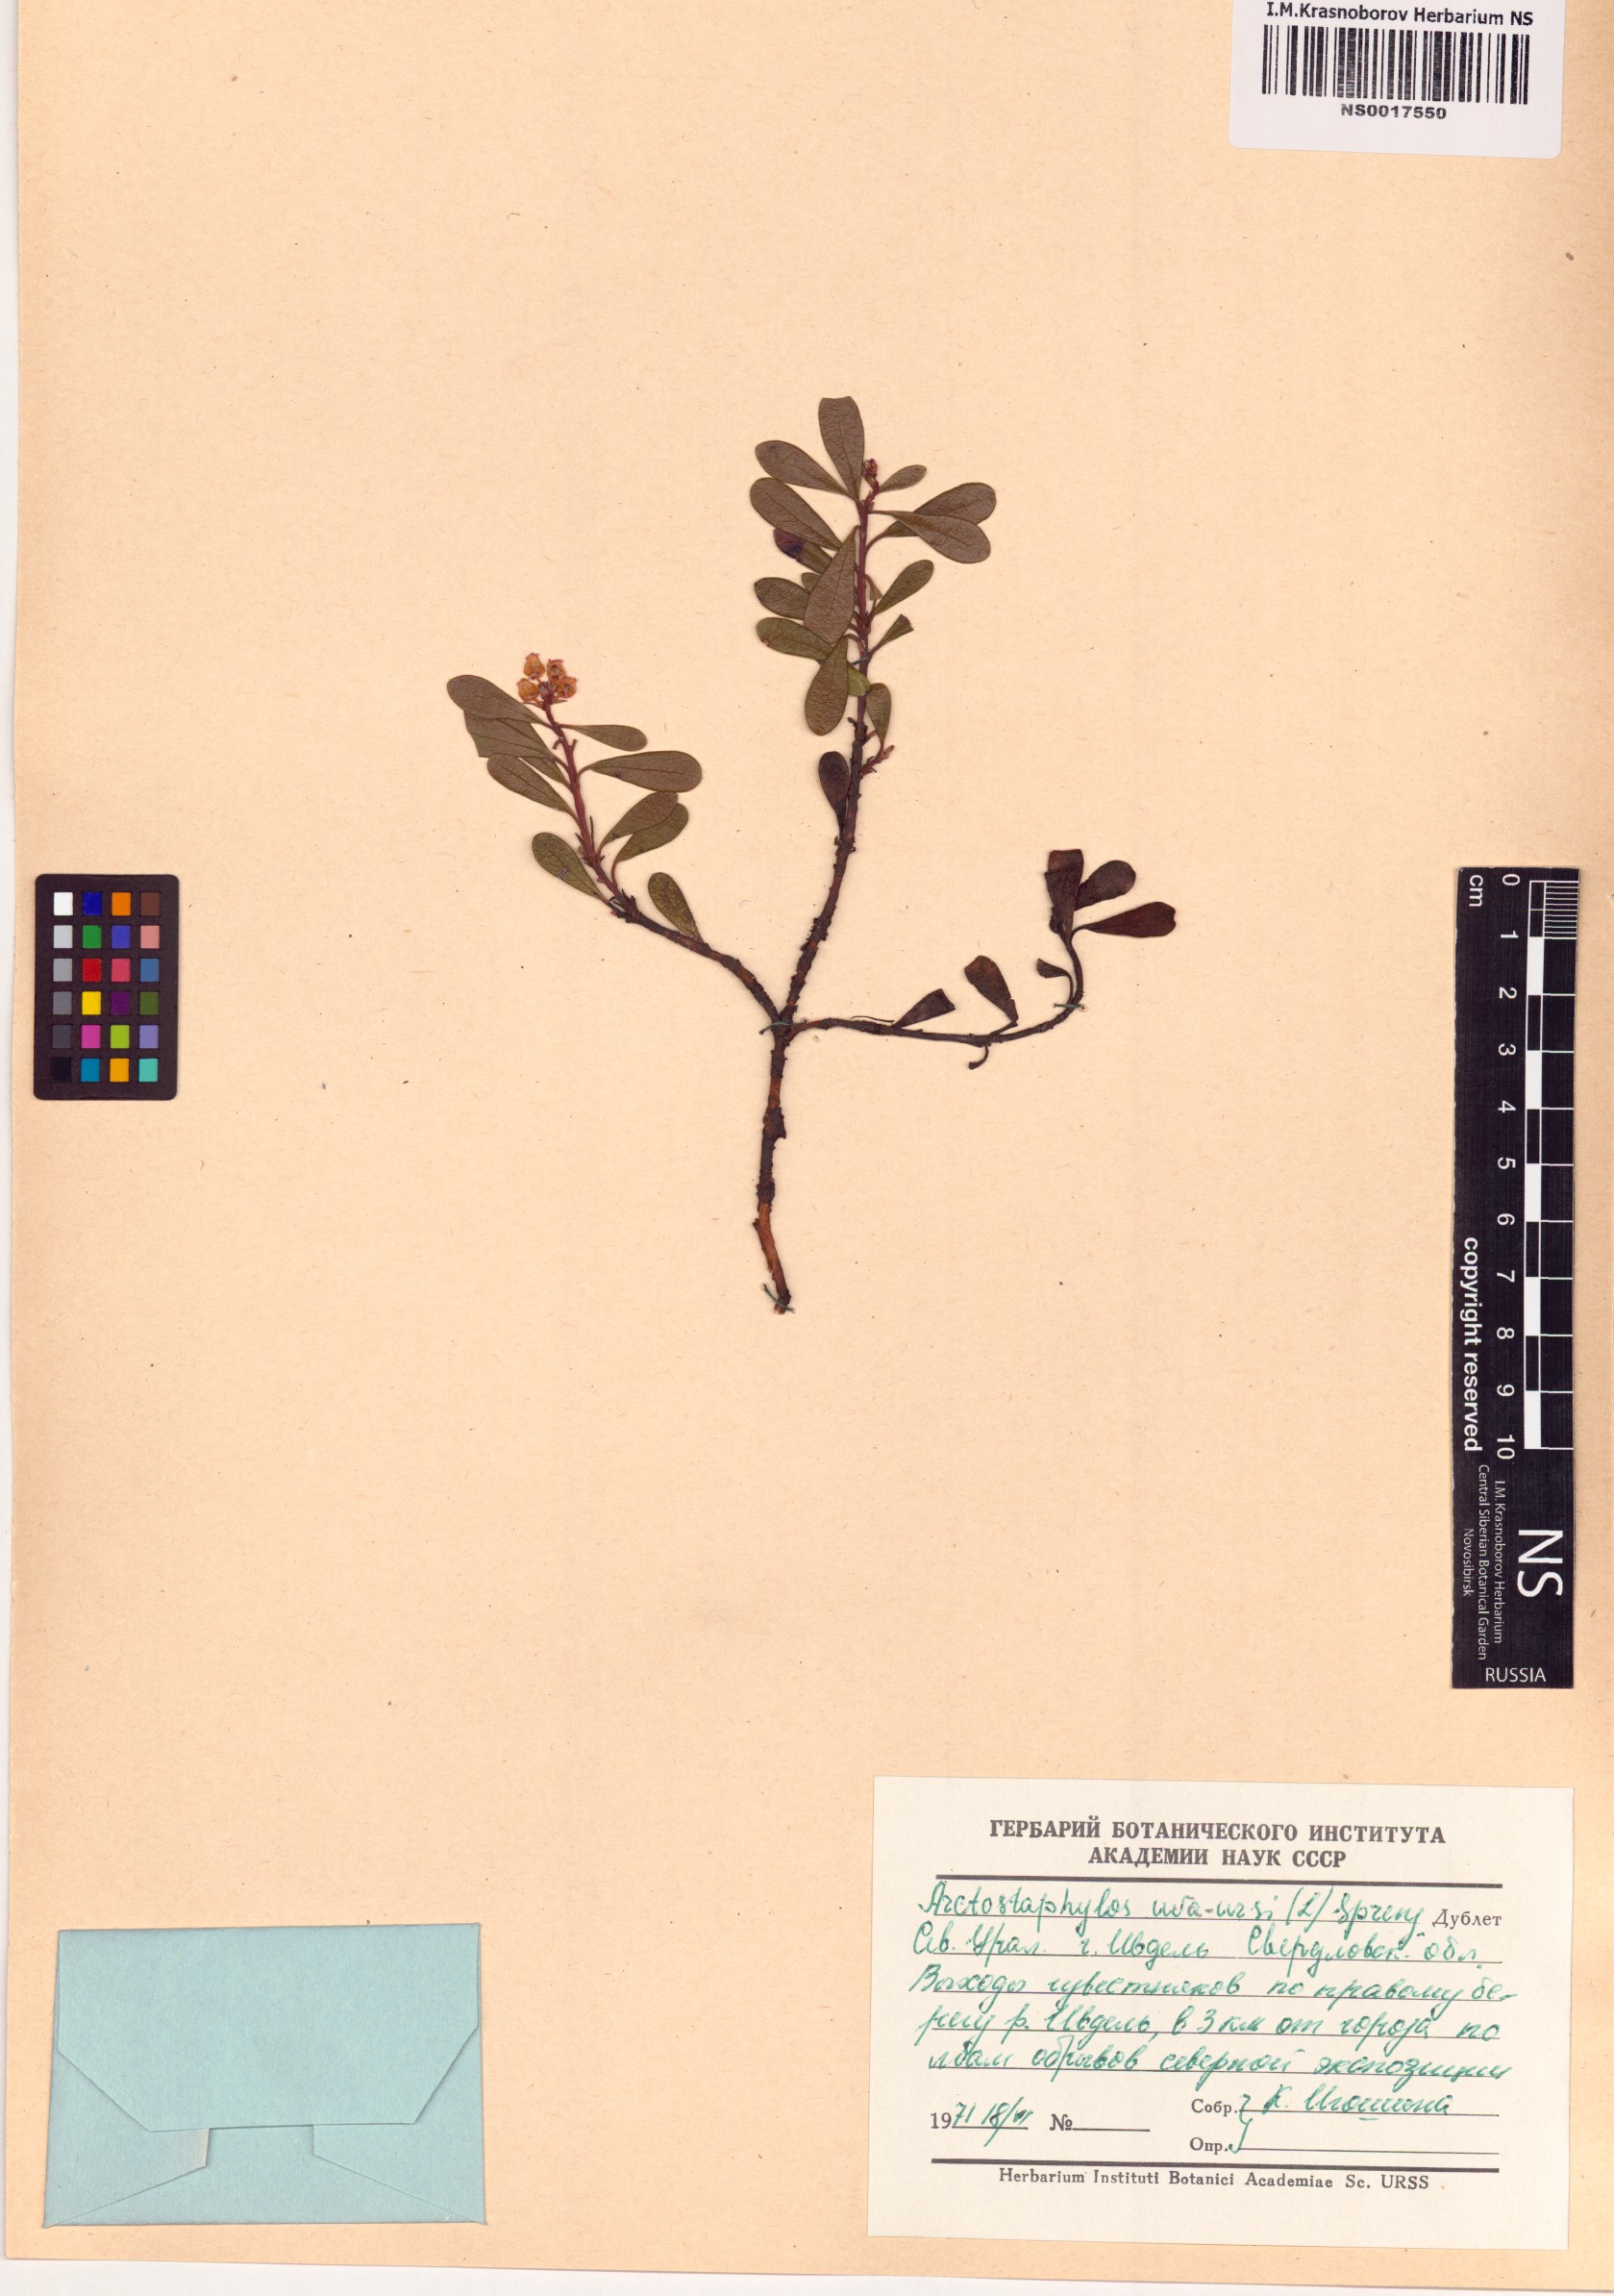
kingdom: Plantae
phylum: Tracheophyta
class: Magnoliopsida
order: Ericales
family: Ericaceae
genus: Arctostaphylos
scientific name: Arctostaphylos uva-ursi
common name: Bearberry
